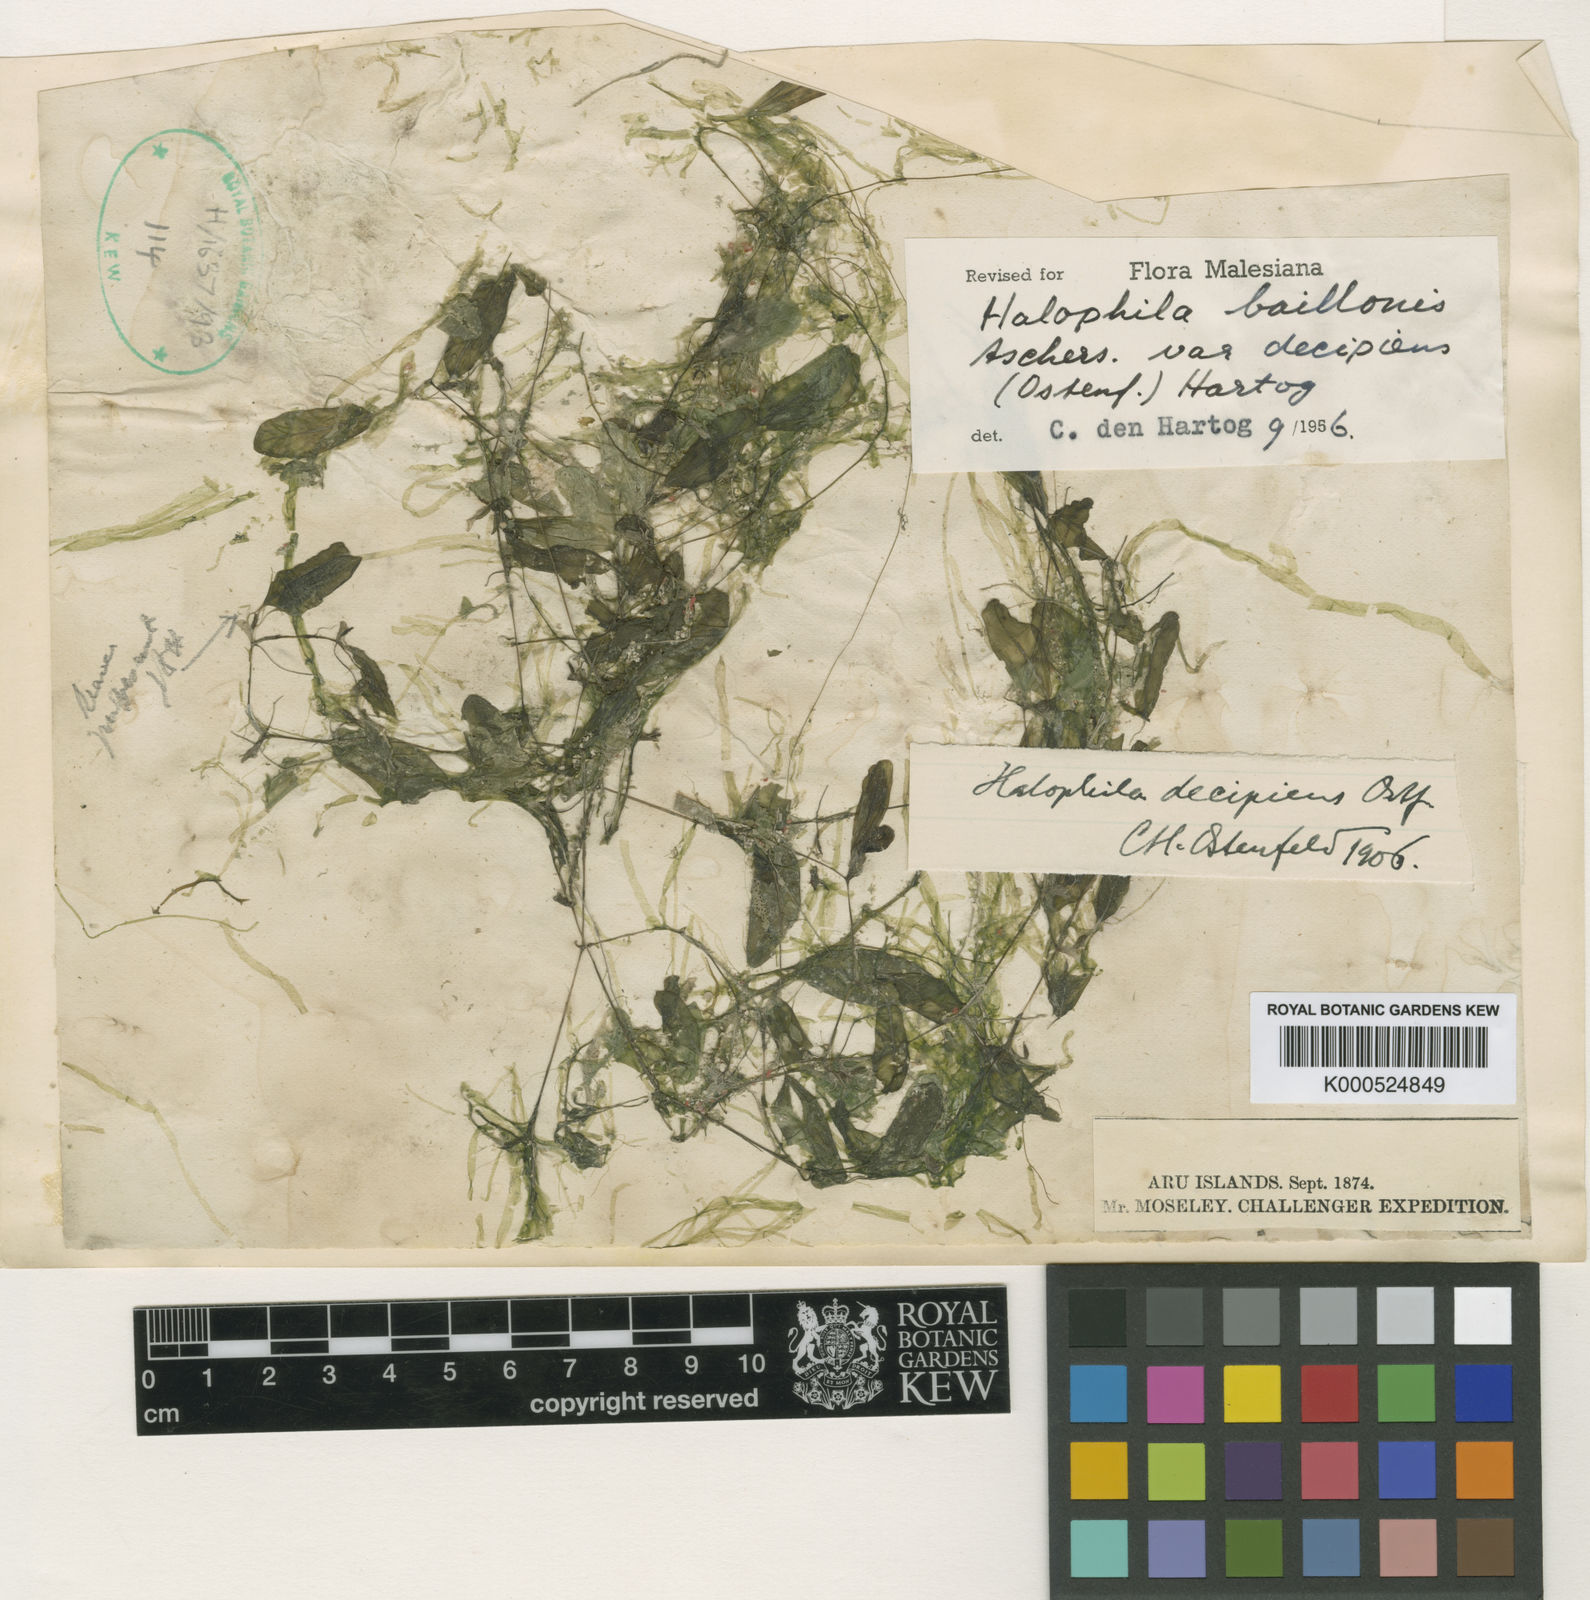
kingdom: Plantae
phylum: Tracheophyta
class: Liliopsida
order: Alismatales
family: Hydrocharitaceae
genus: Halophila
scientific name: Halophila decipiens
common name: Paddle grass
